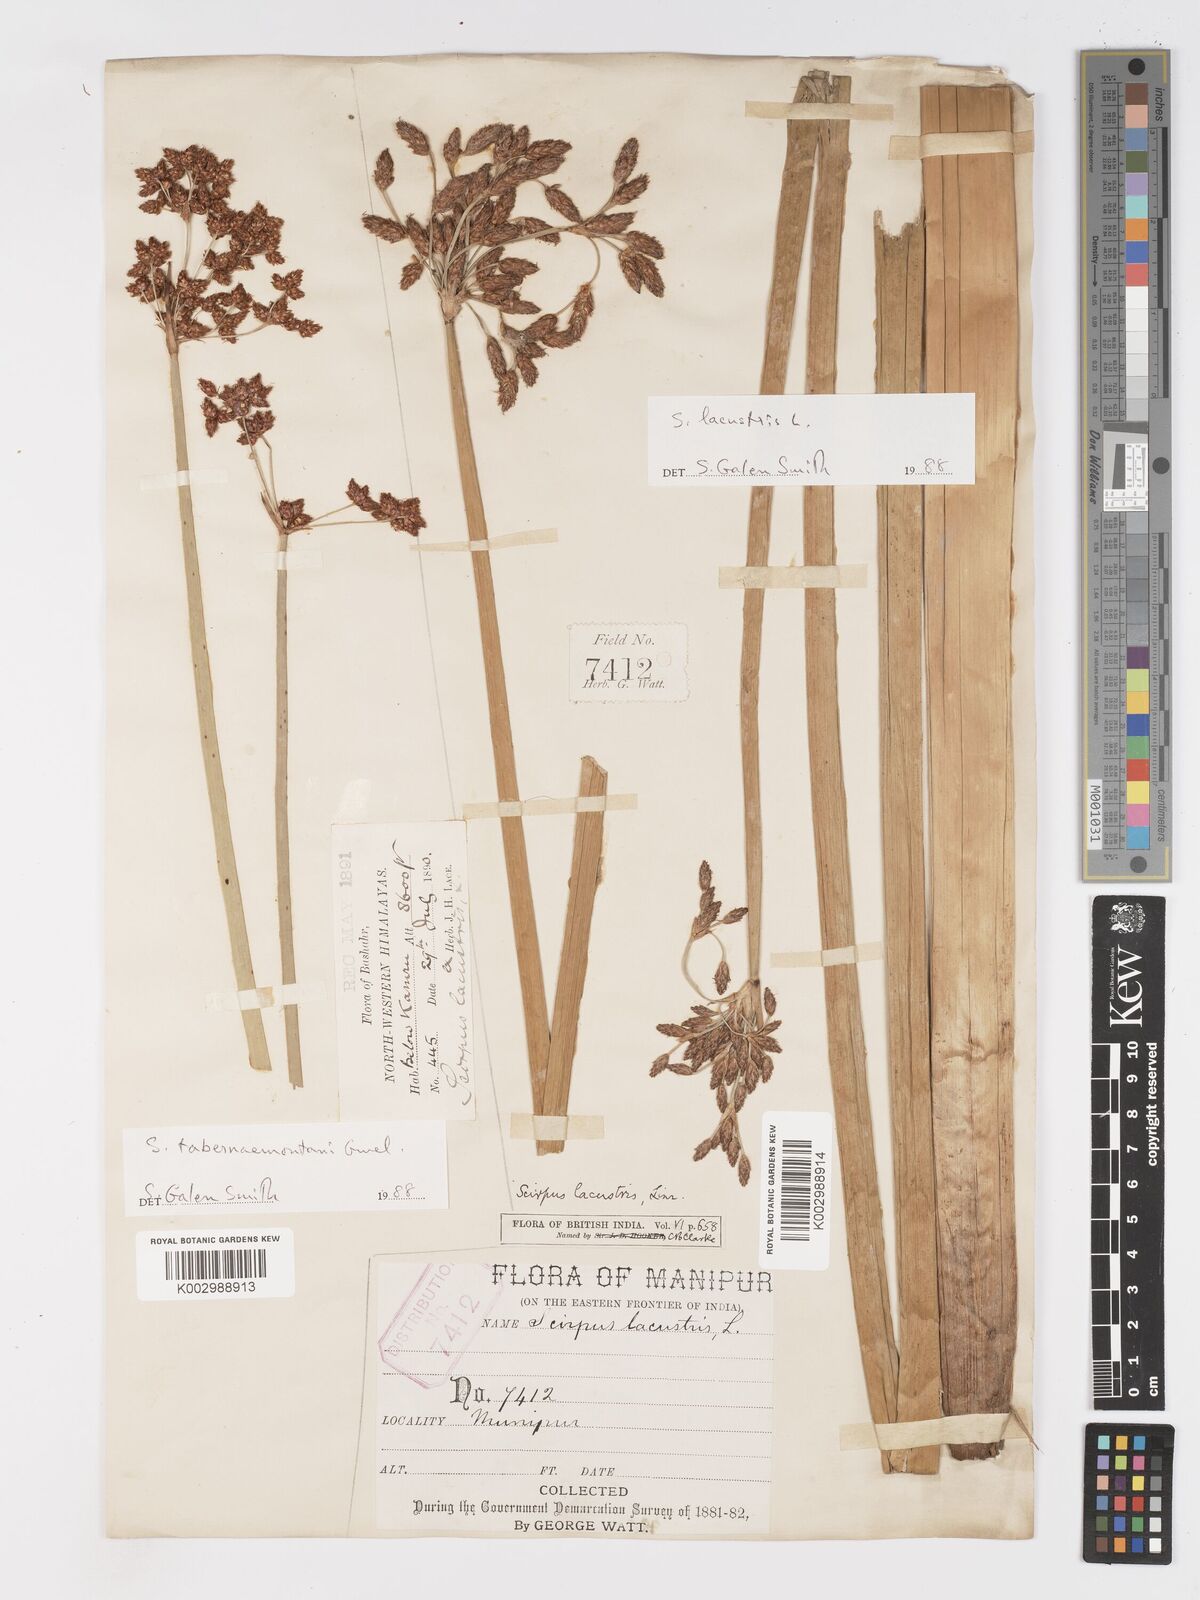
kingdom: Plantae
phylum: Tracheophyta
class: Liliopsida
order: Poales
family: Cyperaceae
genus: Schoenoplectus
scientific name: Schoenoplectus tabernaemontani
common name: Grey club-rush
